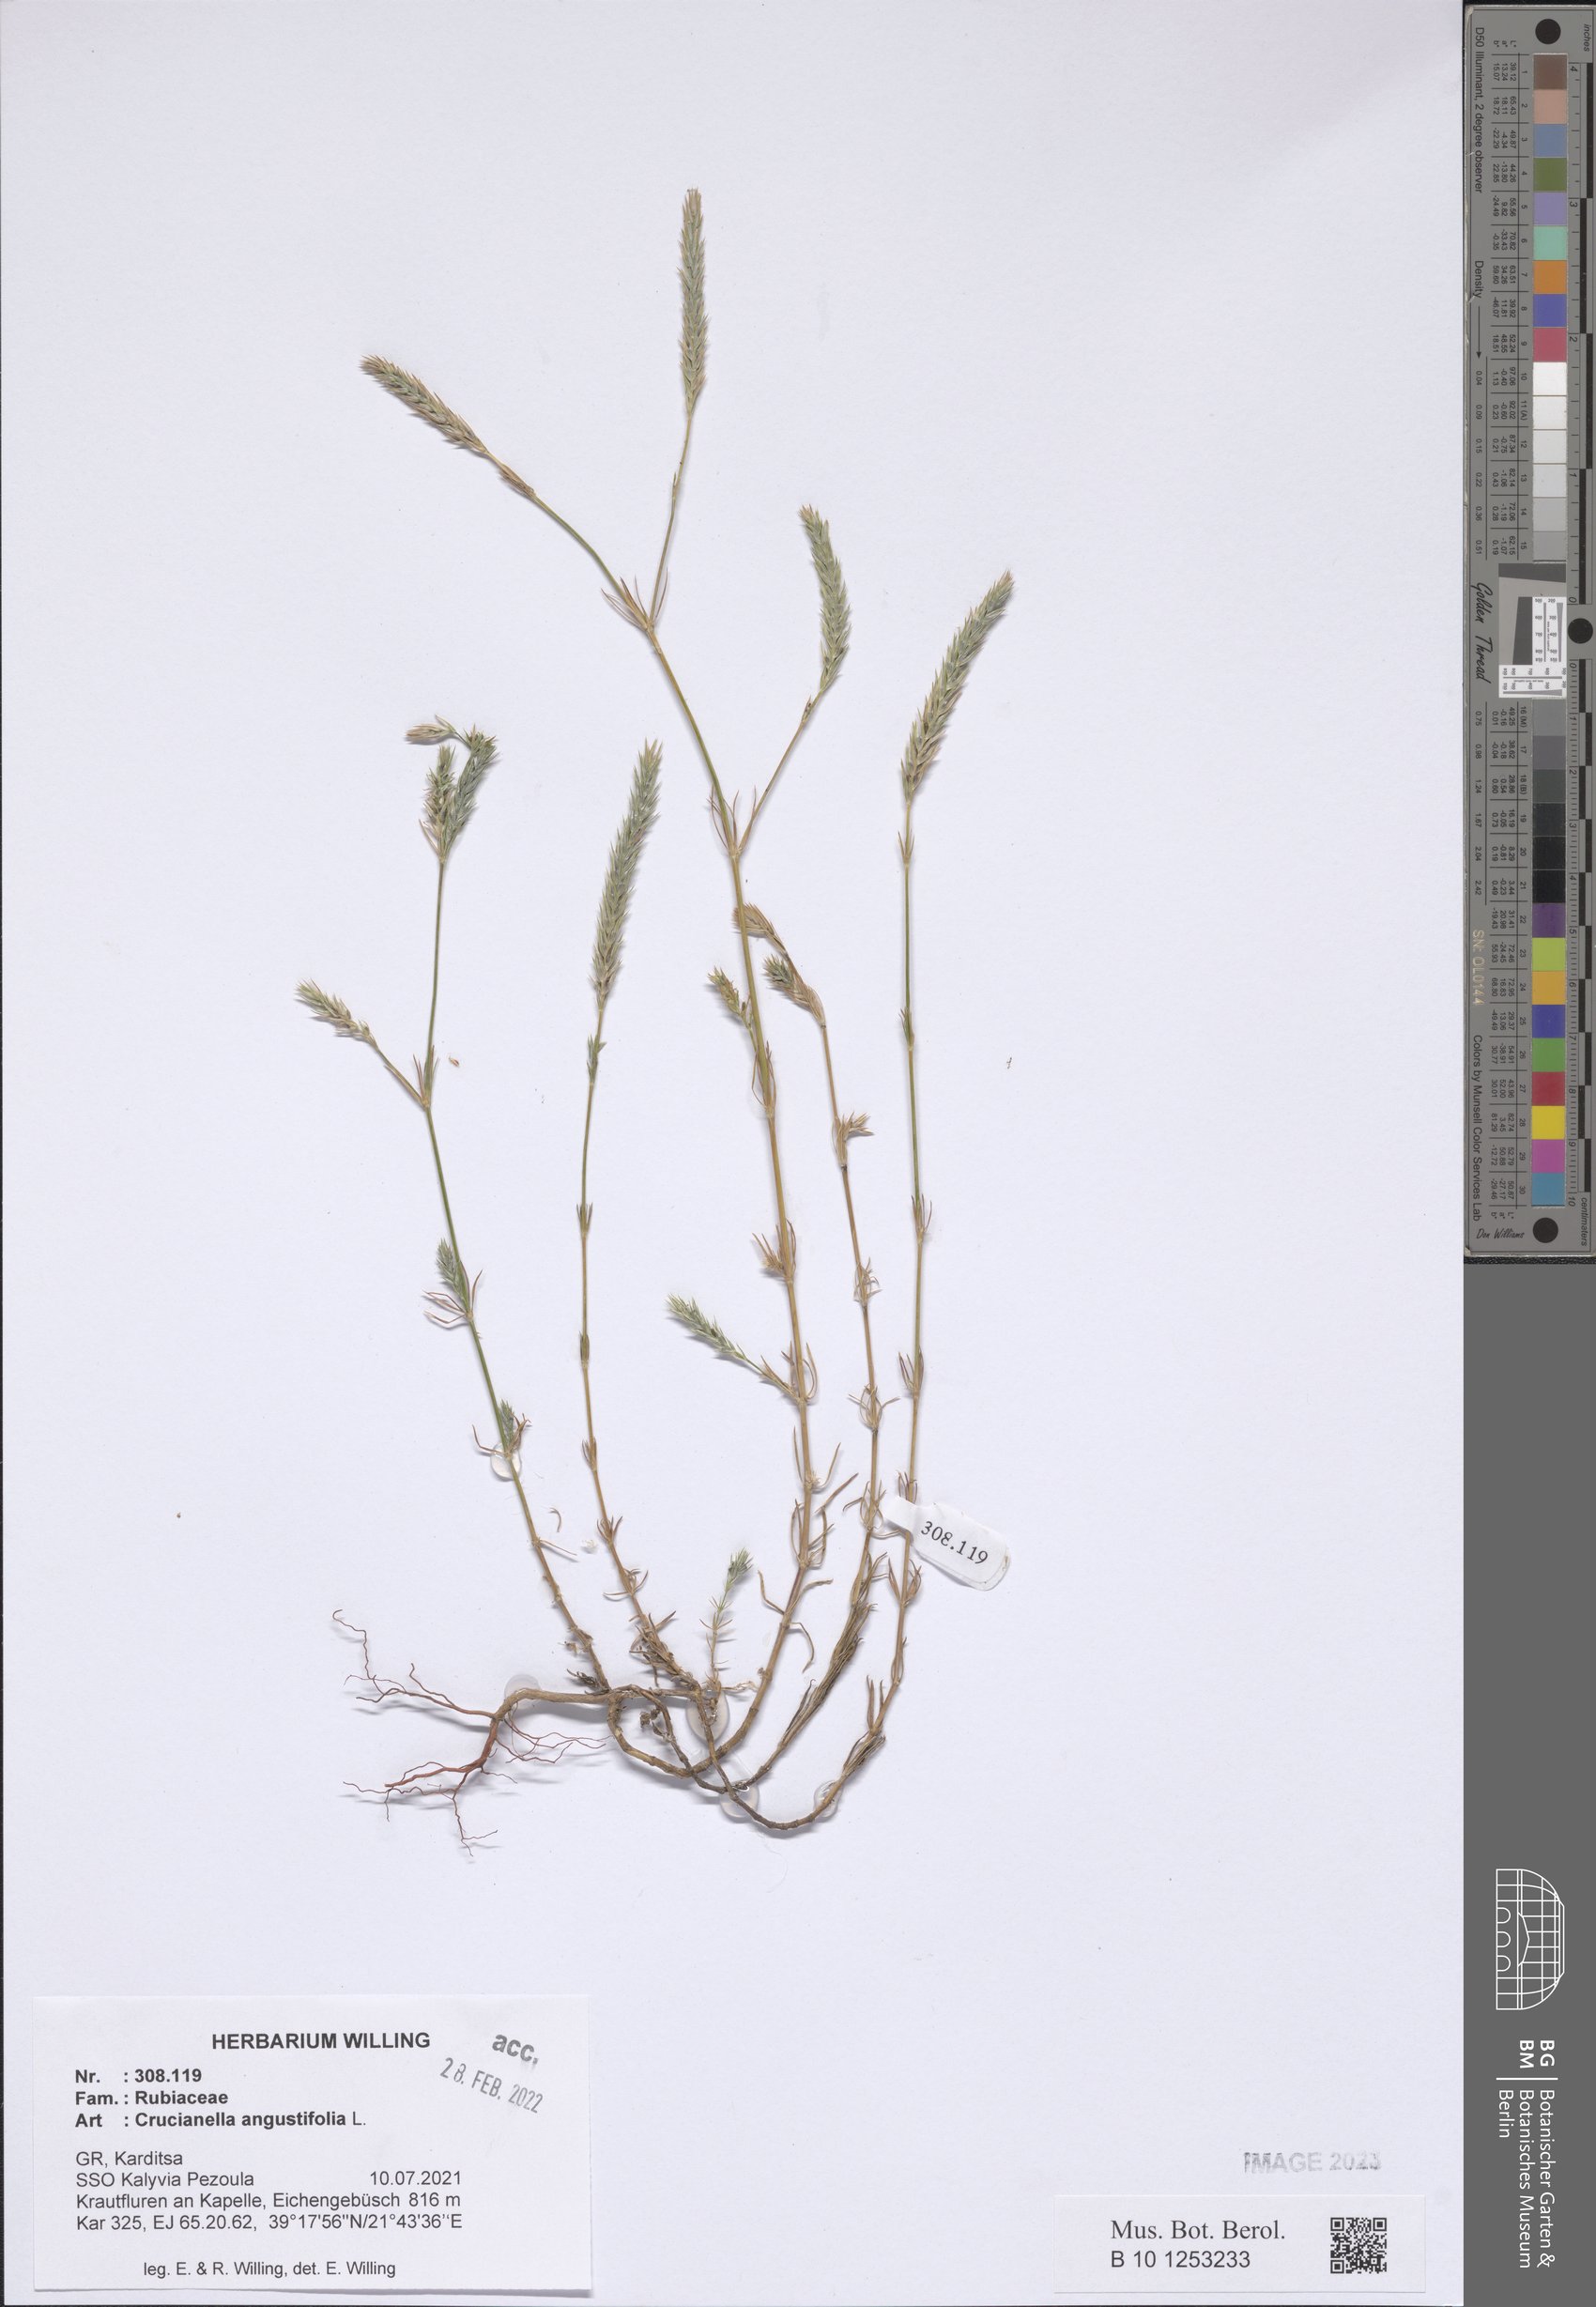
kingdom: Plantae
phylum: Tracheophyta
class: Magnoliopsida
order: Gentianales
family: Rubiaceae
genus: Crucianella
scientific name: Crucianella angustifolia
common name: Narrowleaf crucianella
